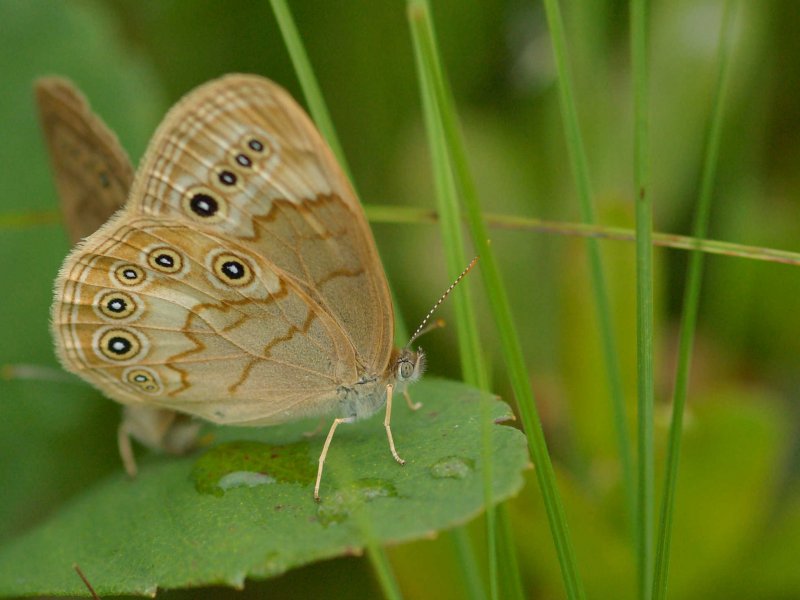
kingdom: Animalia
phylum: Arthropoda
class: Insecta
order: Lepidoptera
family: Nymphalidae
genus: Lethe
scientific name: Lethe eurydice
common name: Eyed Brown
